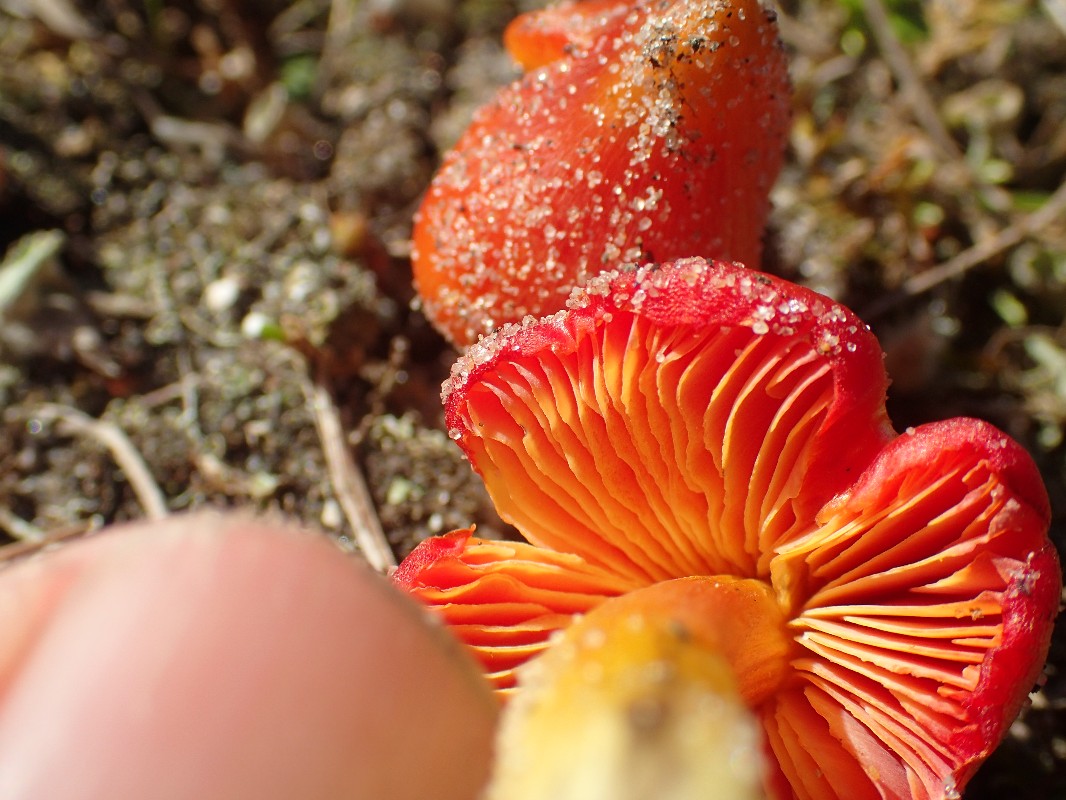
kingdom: Fungi
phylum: Basidiomycota
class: Agaricomycetes
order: Agaricales
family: Hygrophoraceae
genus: Hygrocybe
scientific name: Hygrocybe conicoides
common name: klit-vokshat
